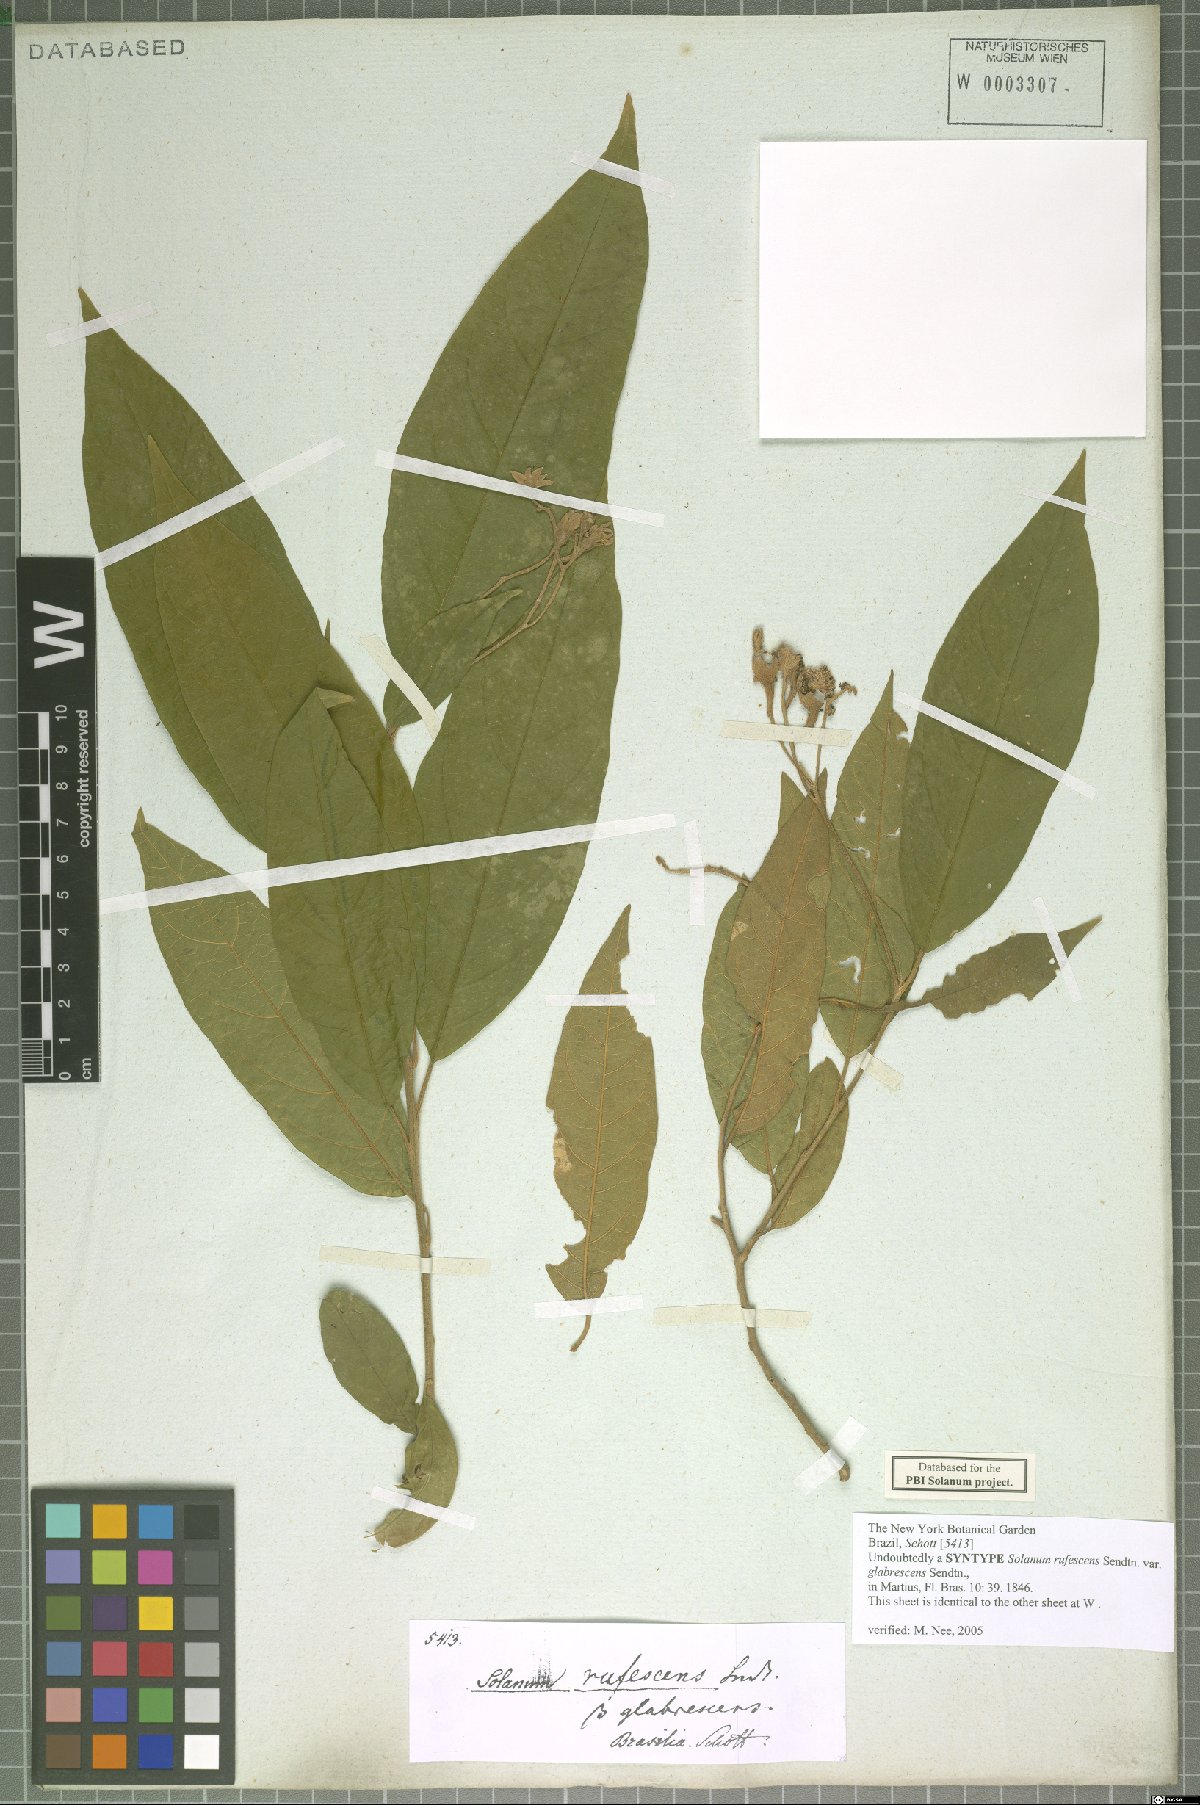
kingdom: Plantae
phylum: Tracheophyta
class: Magnoliopsida
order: Solanales
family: Solanaceae
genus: Solanum
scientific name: Solanum rufescens
